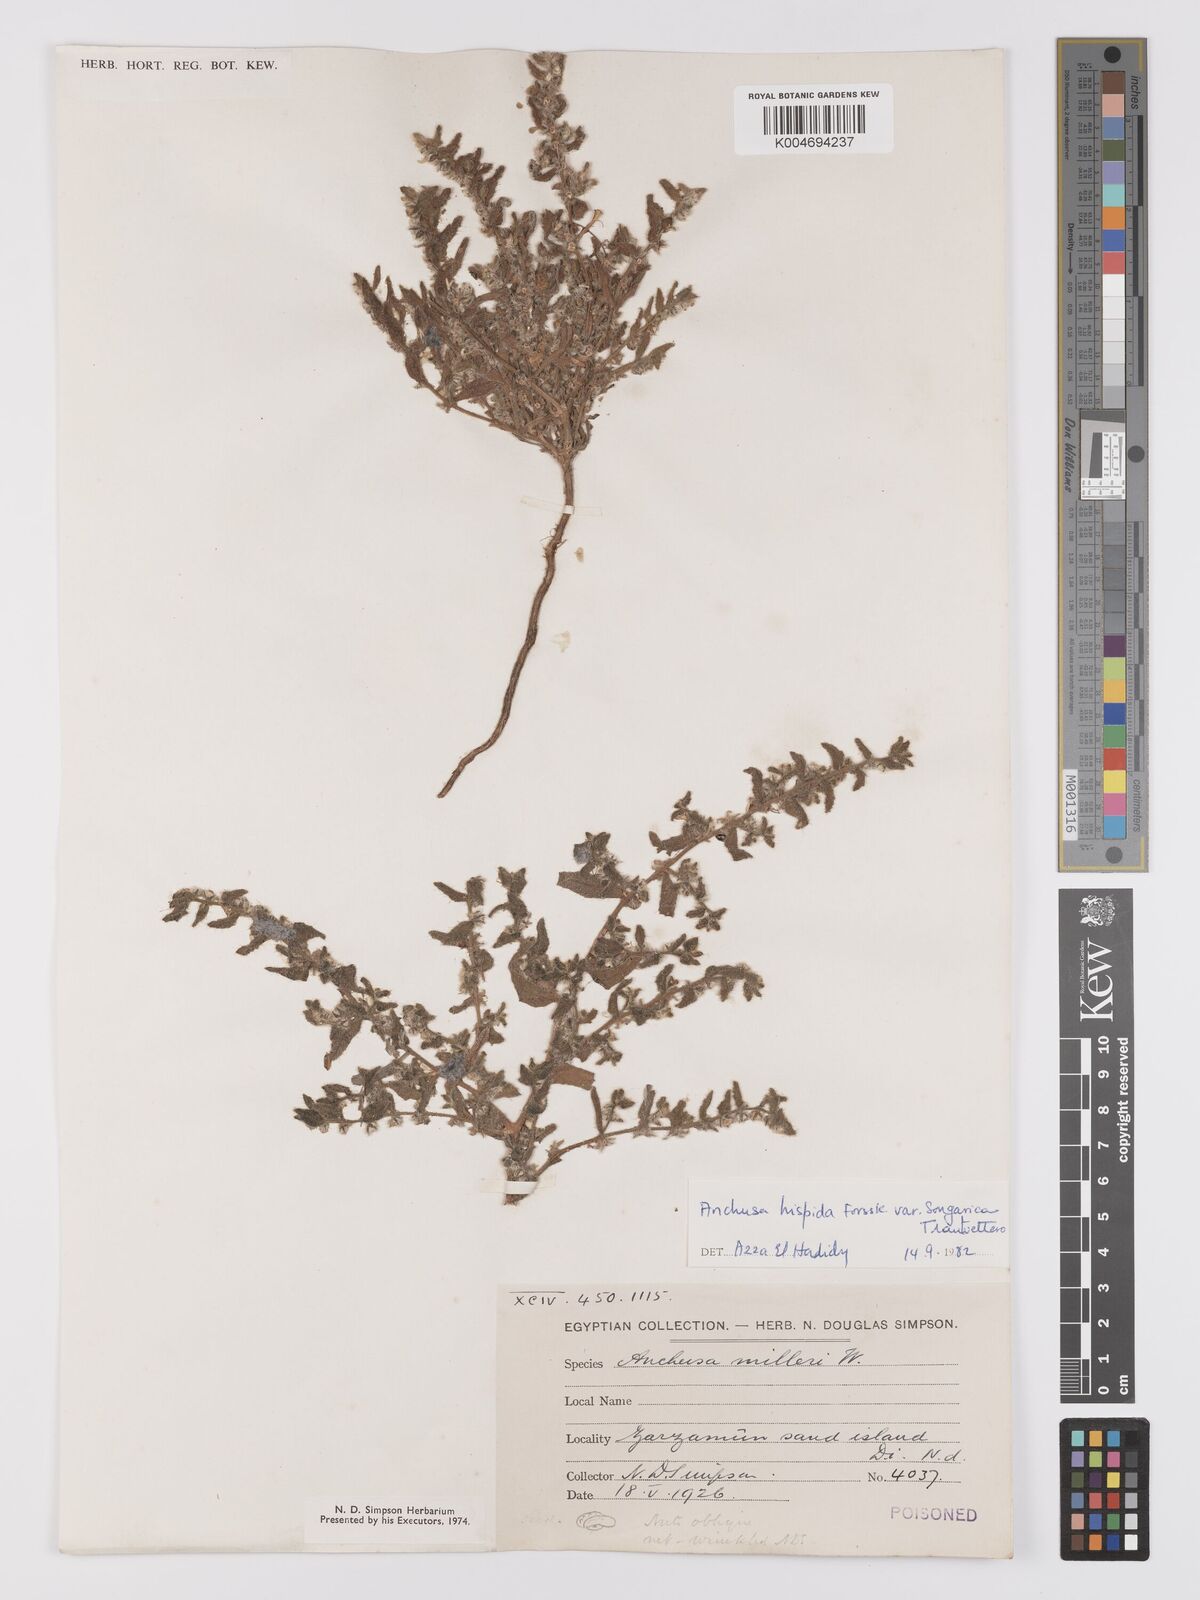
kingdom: Plantae
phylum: Tracheophyta
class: Magnoliopsida
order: Boraginales
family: Boraginaceae
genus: Gastrocotyle
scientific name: Gastrocotyle hispida
